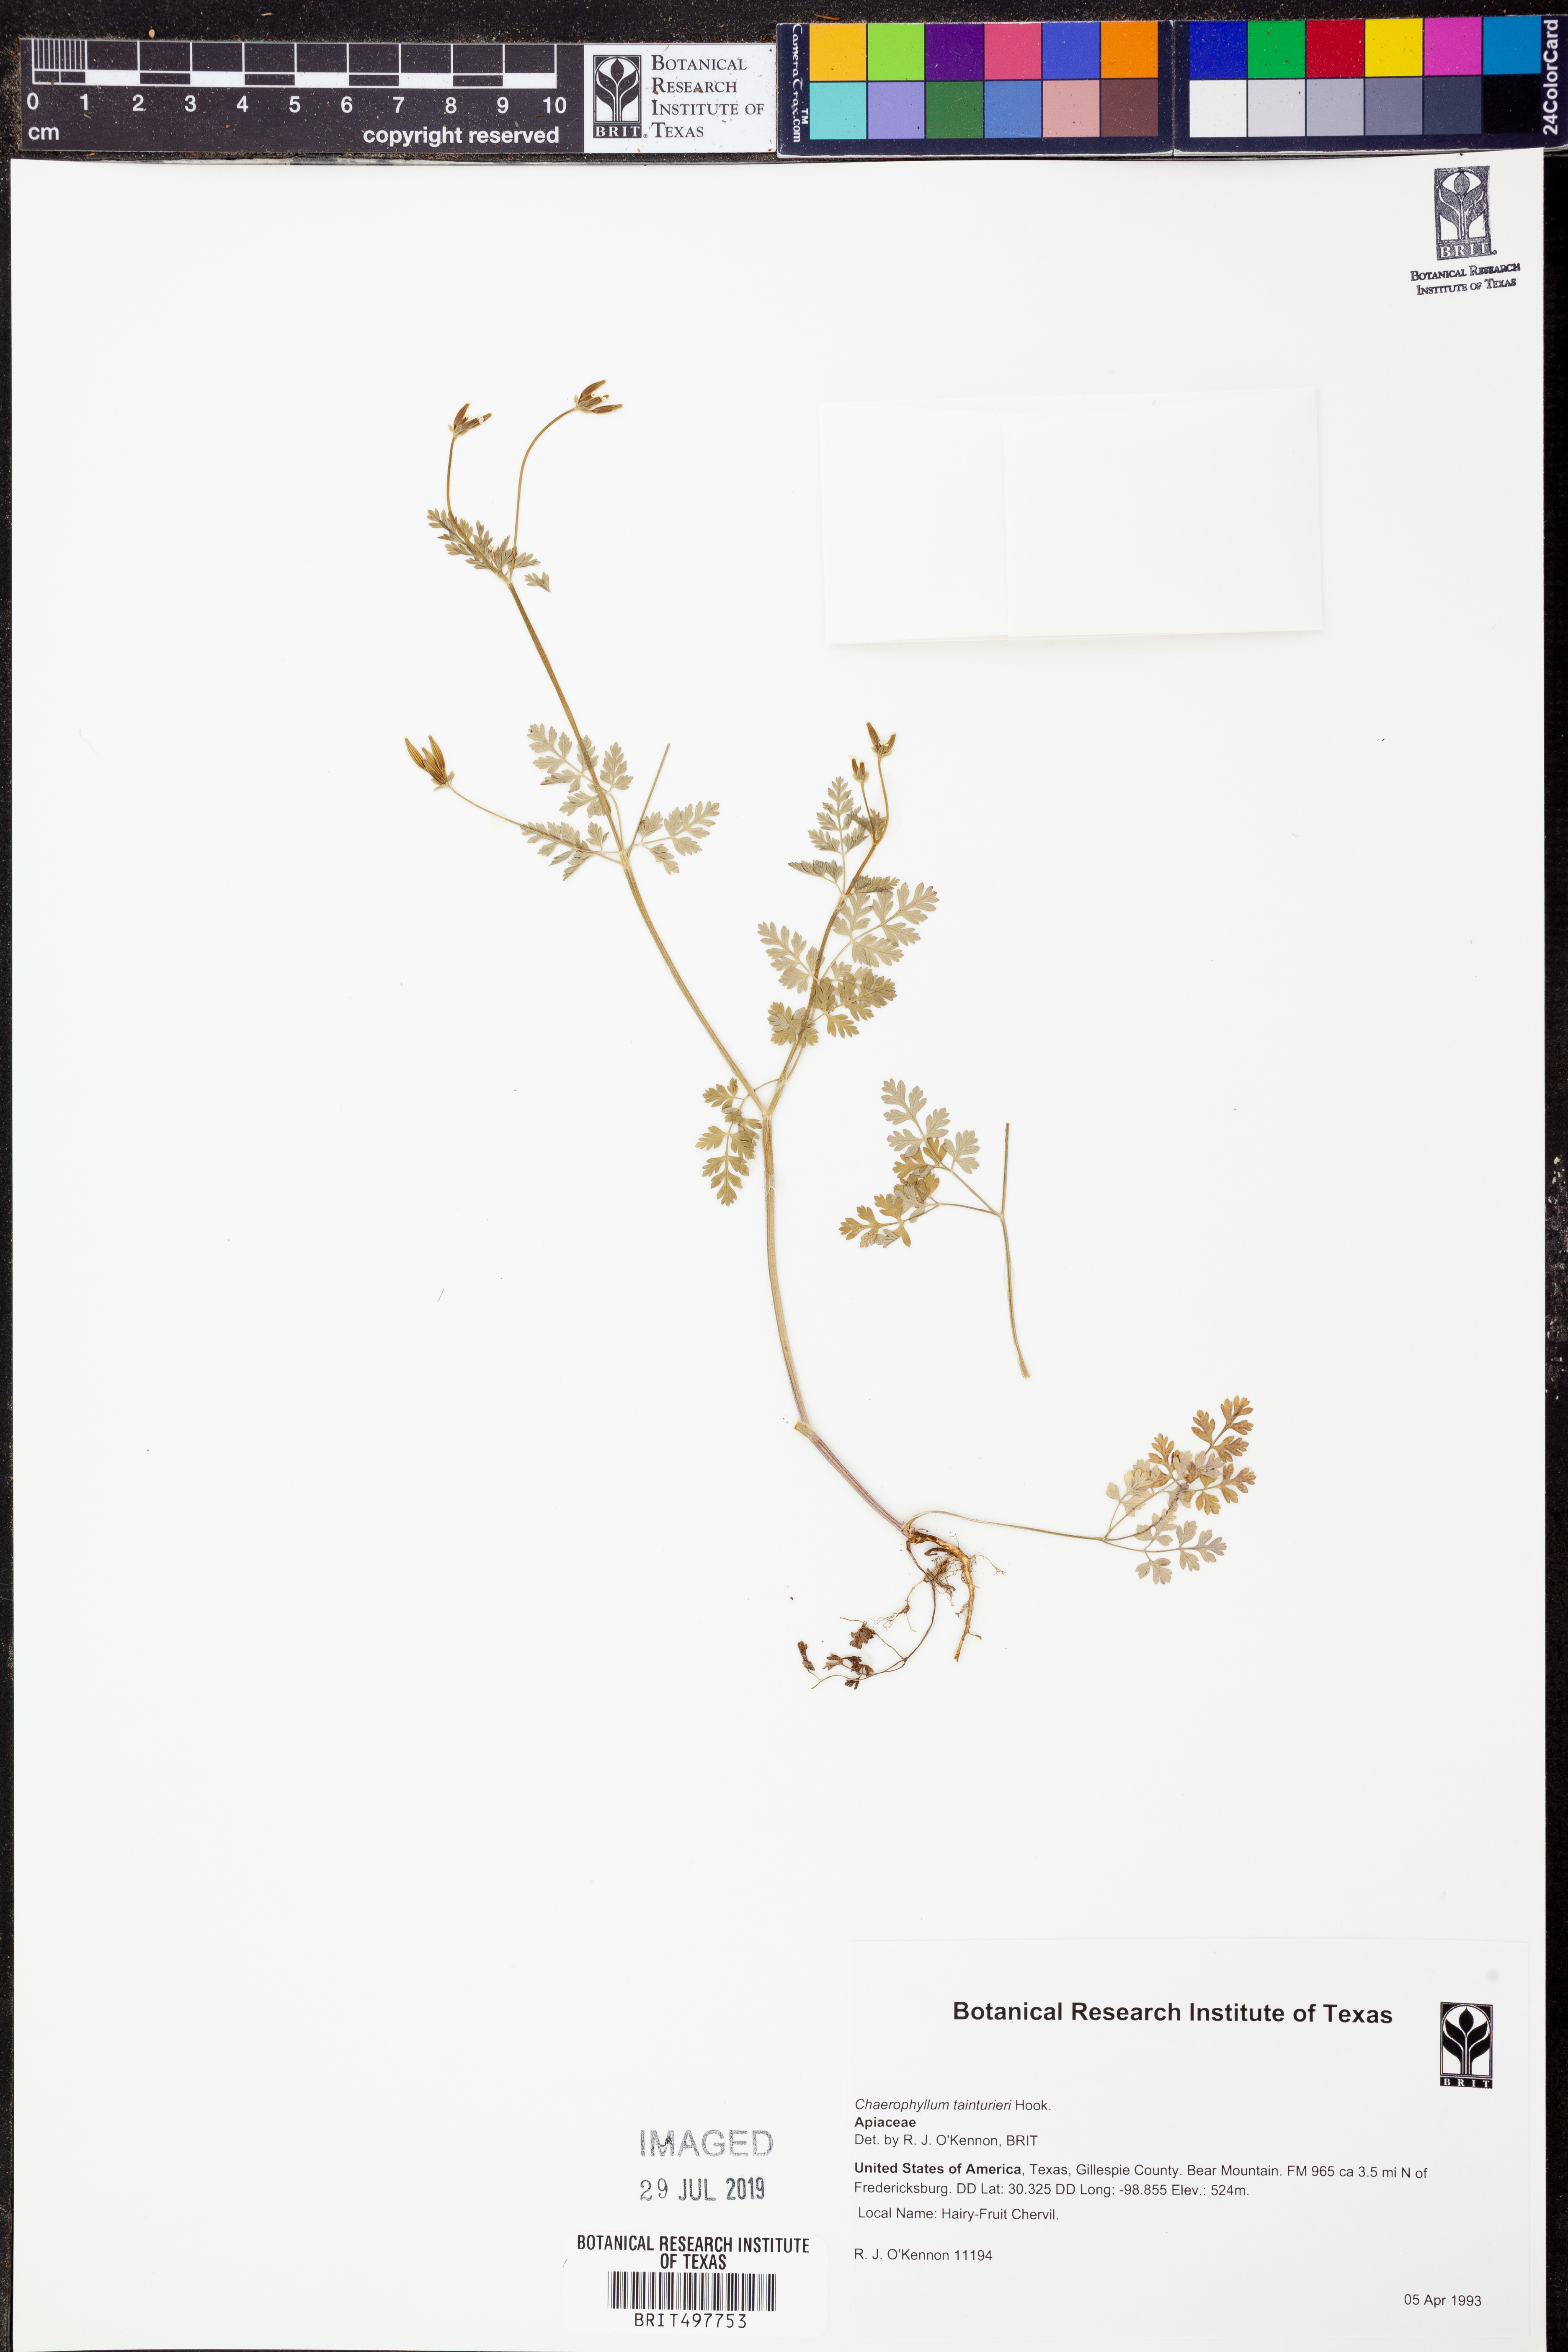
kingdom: Plantae
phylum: Tracheophyta
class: Magnoliopsida
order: Apiales
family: Apiaceae
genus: Chaerophyllum
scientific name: Chaerophyllum tainturieri
